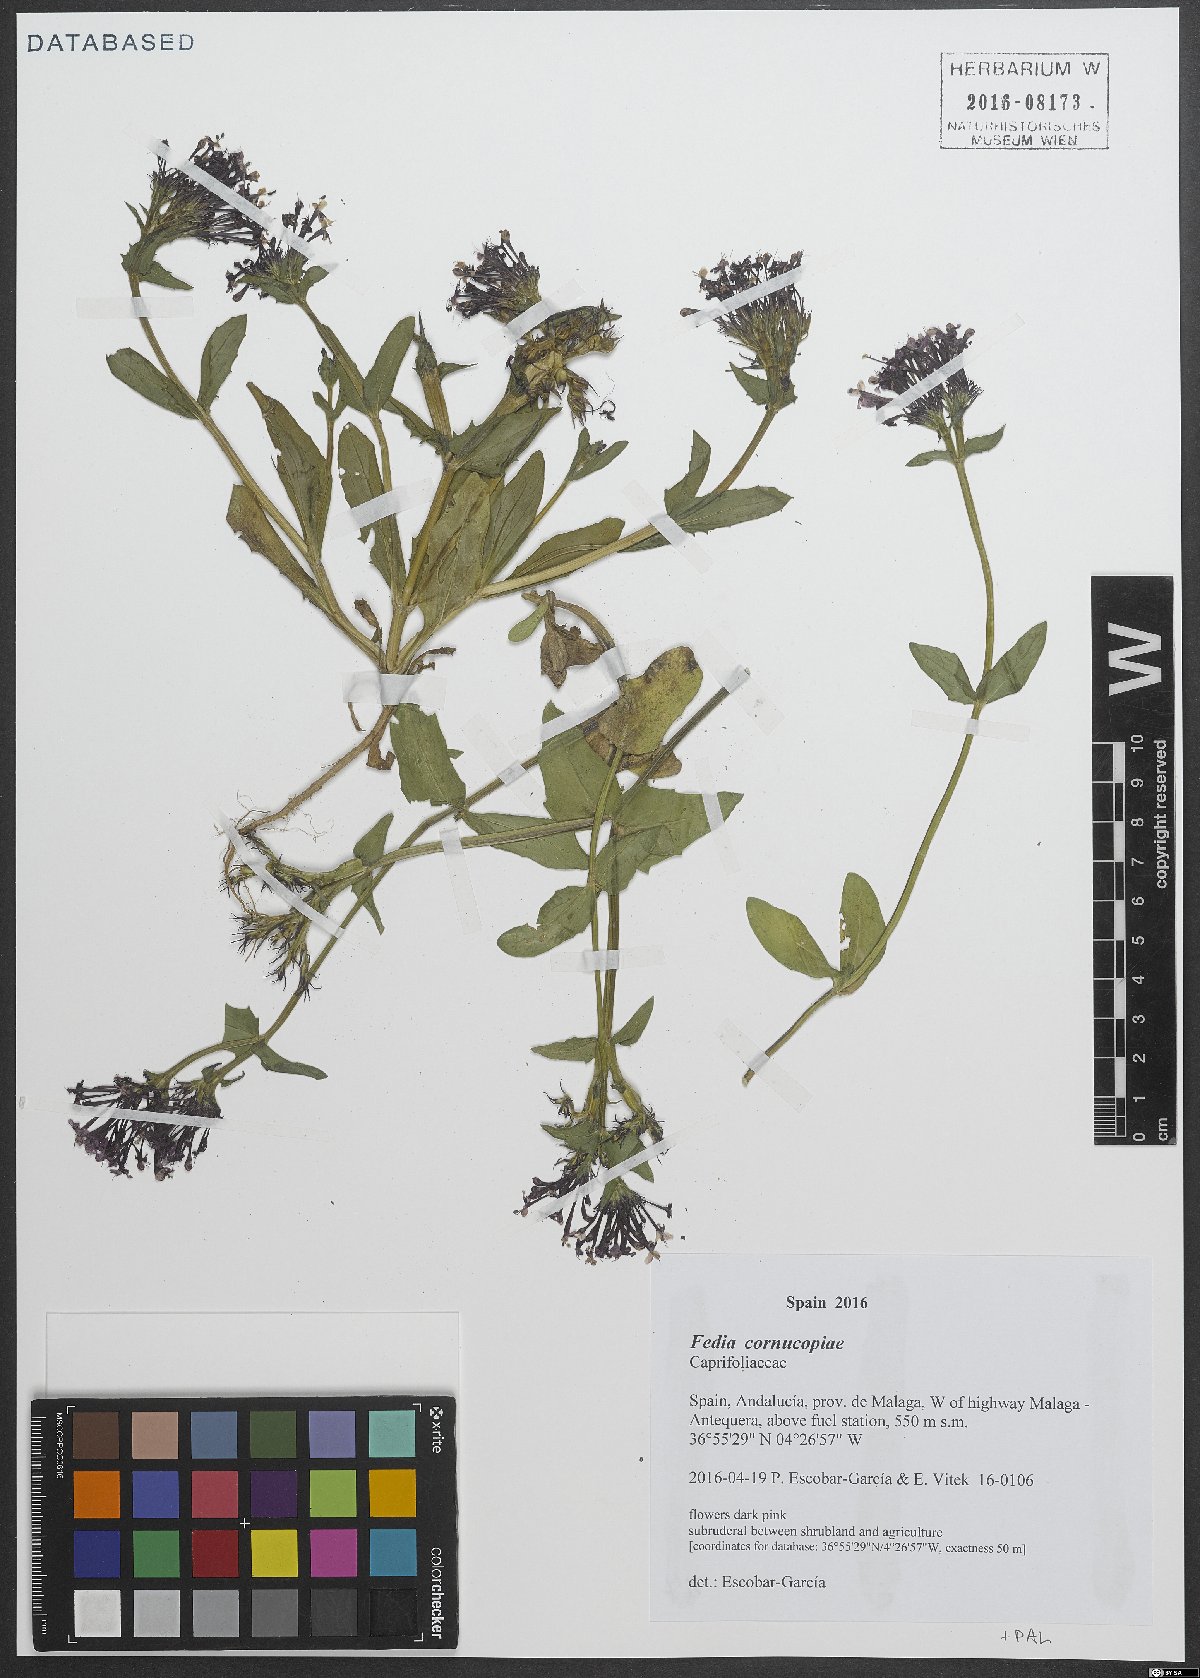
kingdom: Plantae
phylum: Tracheophyta
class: Magnoliopsida
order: Dipsacales
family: Caprifoliaceae
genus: Fedia
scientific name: Fedia cornucopiae
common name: Horn-of-plenty
